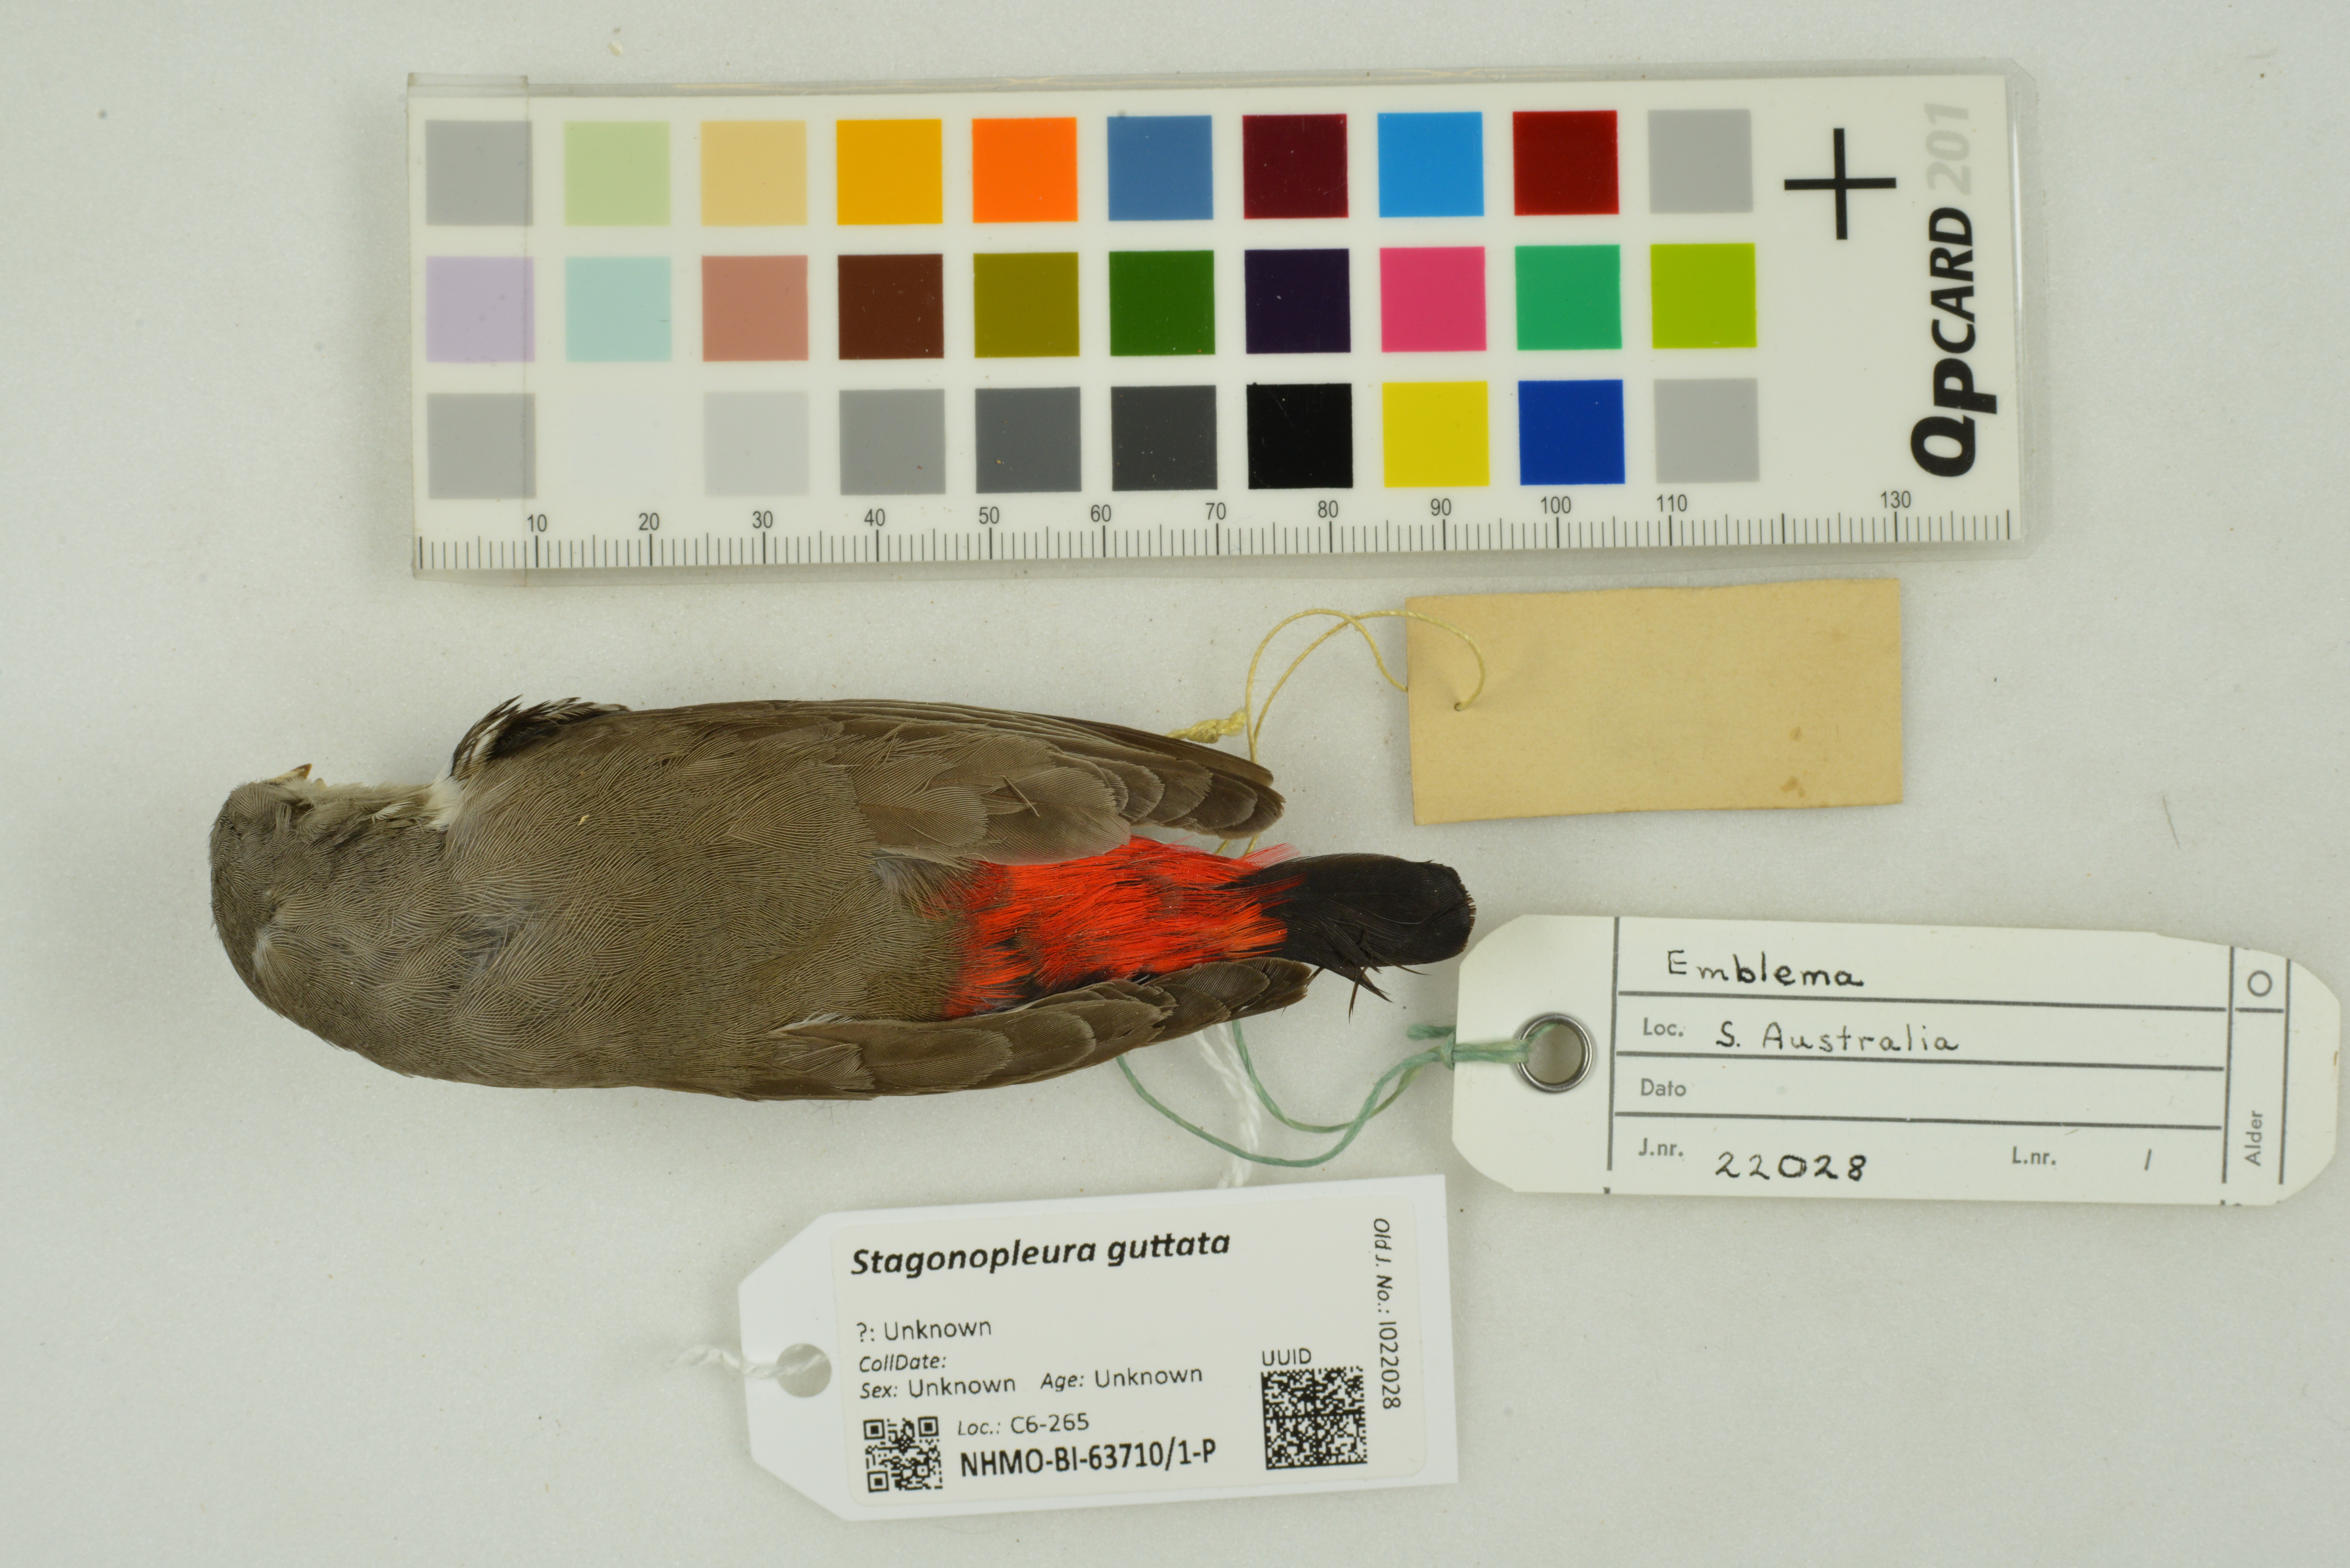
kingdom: Animalia
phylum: Chordata
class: Aves
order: Passeriformes
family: Estrildidae
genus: Stagonopleura
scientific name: Stagonopleura guttata
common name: Diamond firetail
